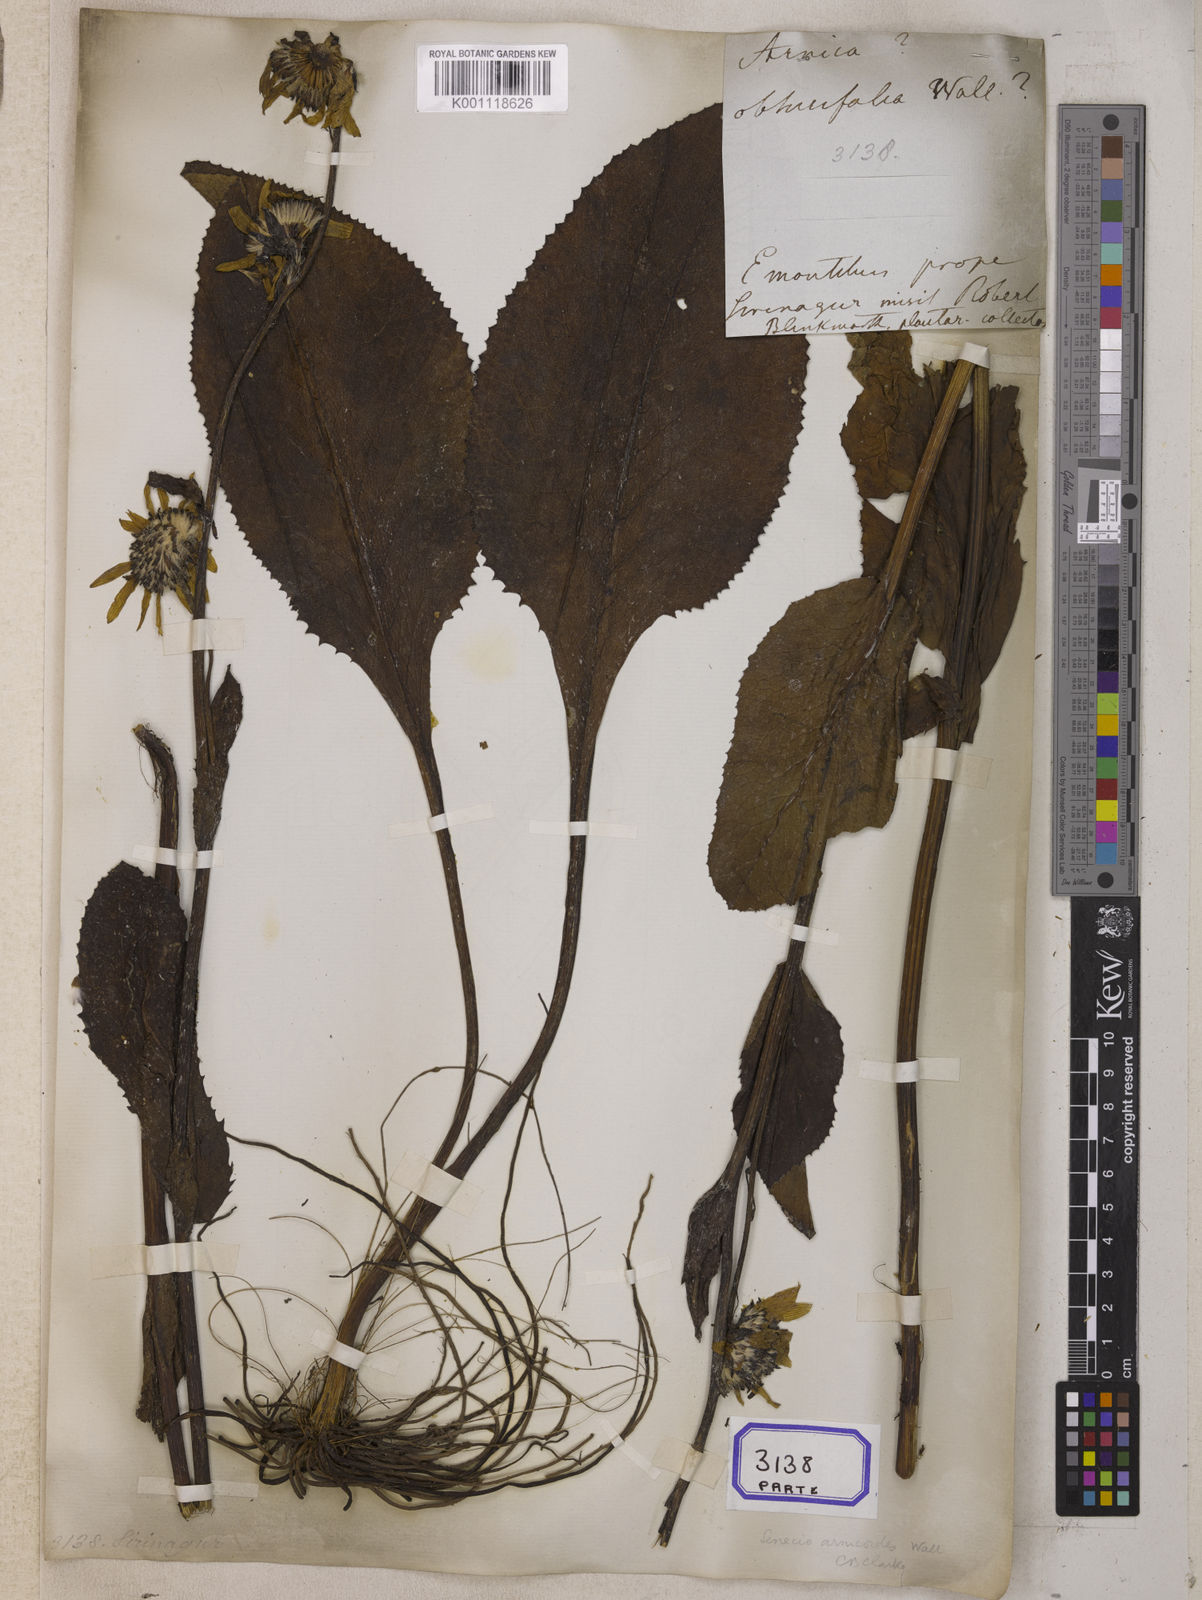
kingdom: Plantae
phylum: Tracheophyta
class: Magnoliopsida
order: Asterales
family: Asteraceae
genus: Senecio
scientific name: Senecio
